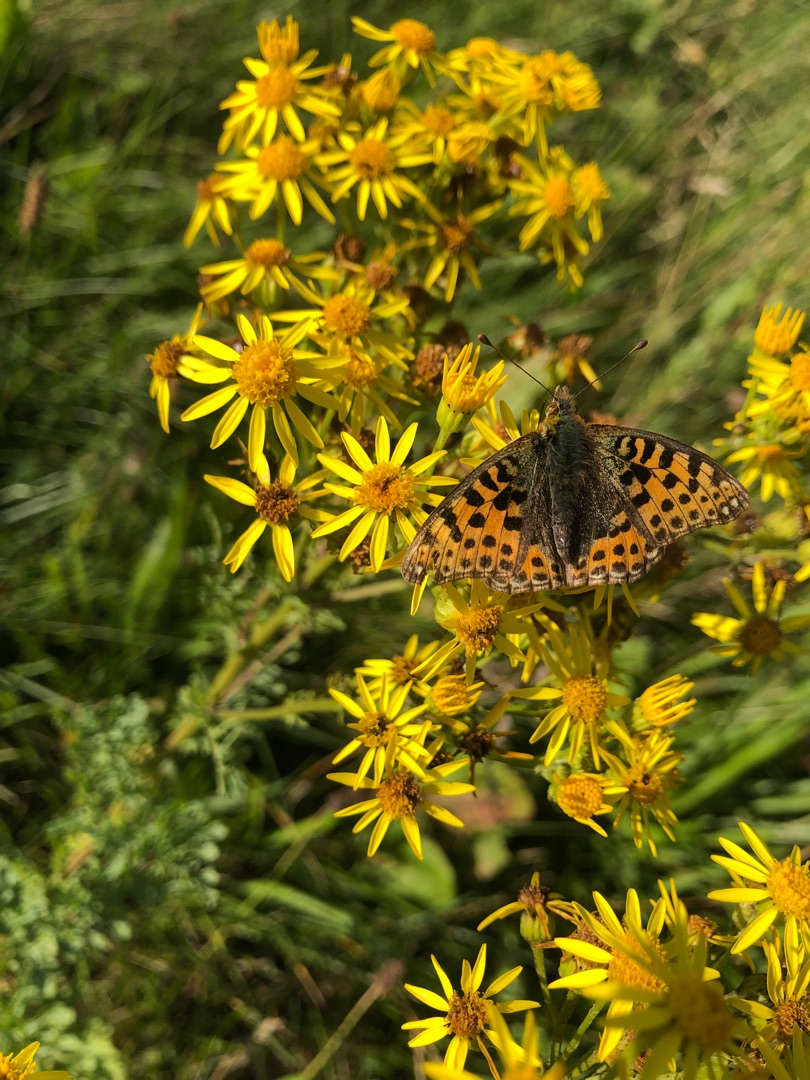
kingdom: Animalia
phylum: Arthropoda
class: Insecta
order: Lepidoptera
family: Nymphalidae
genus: Issoria
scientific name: Issoria lathonia
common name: Storplettet perlemorsommerfugl
